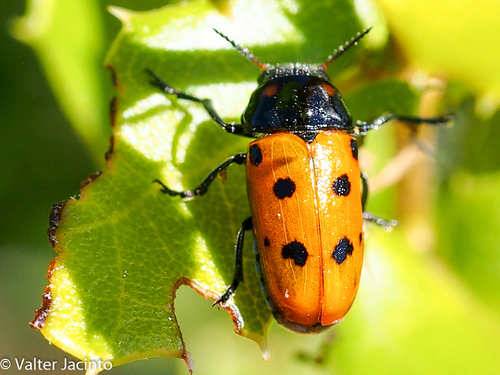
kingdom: Animalia
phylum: Arthropoda
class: Insecta
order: Coleoptera
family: Chrysomelidae
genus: Tituboea
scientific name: Tituboea biguttata
